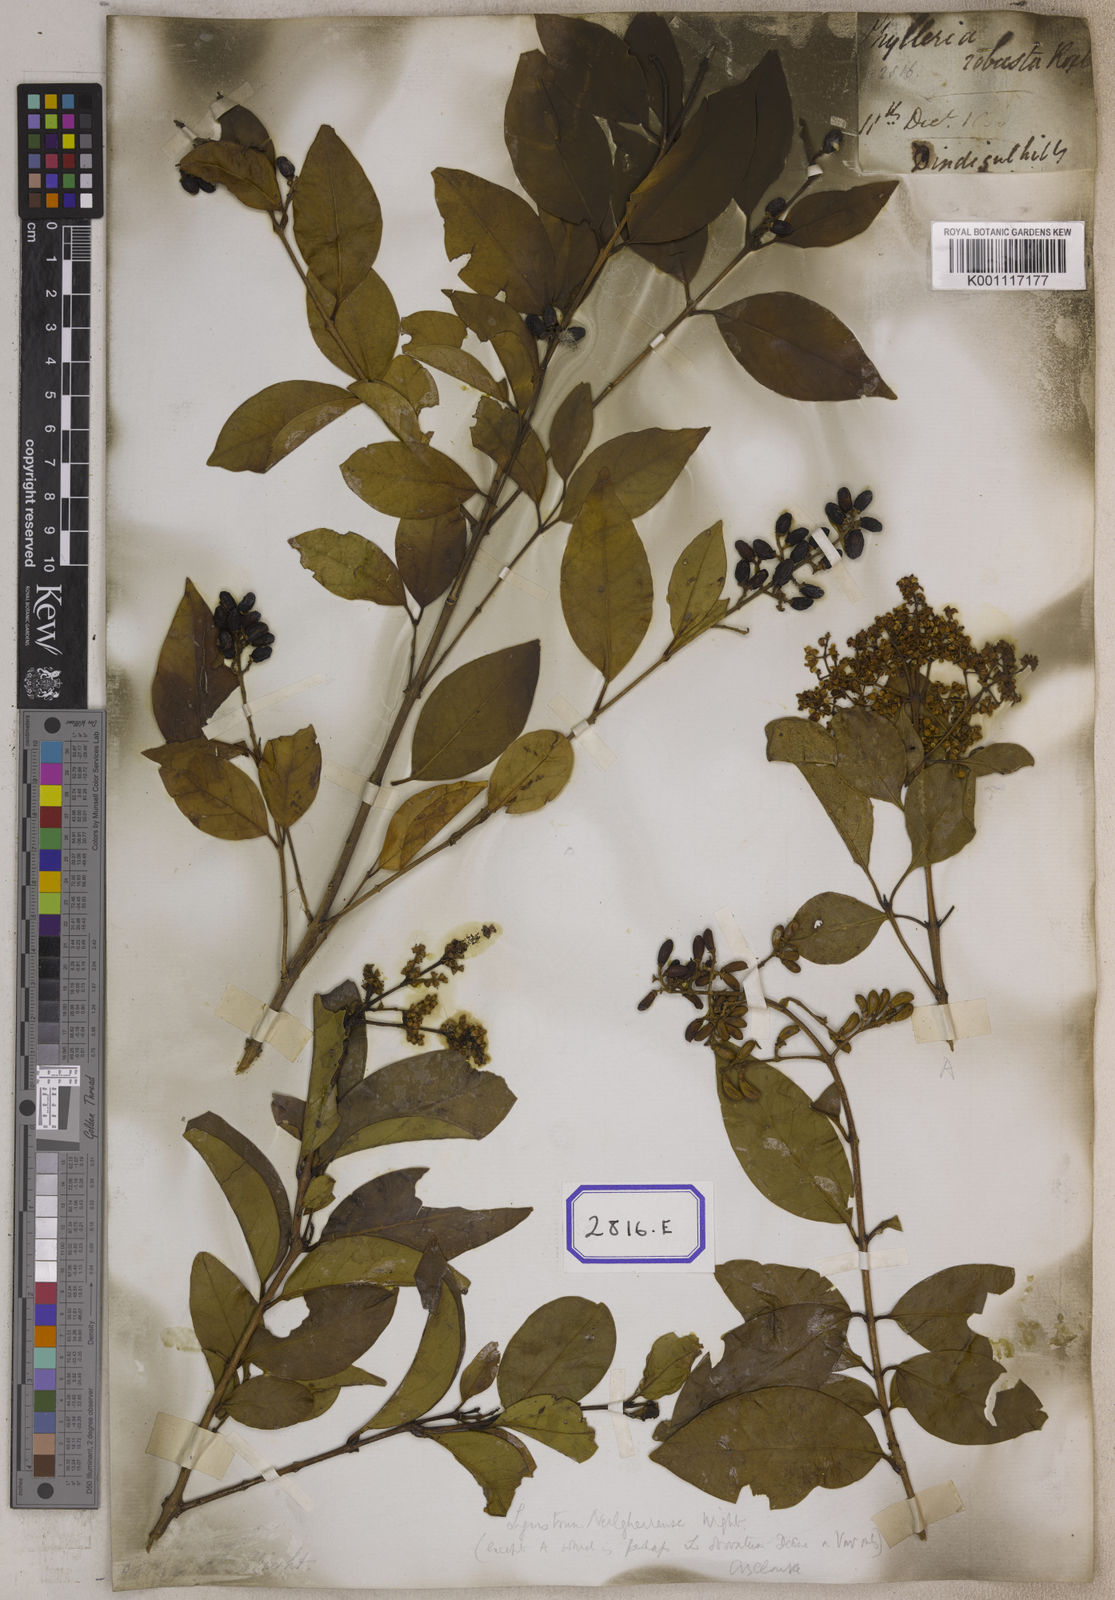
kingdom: Plantae
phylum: Tracheophyta
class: Magnoliopsida
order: Lamiales
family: Oleaceae
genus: Olea
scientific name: Olea
